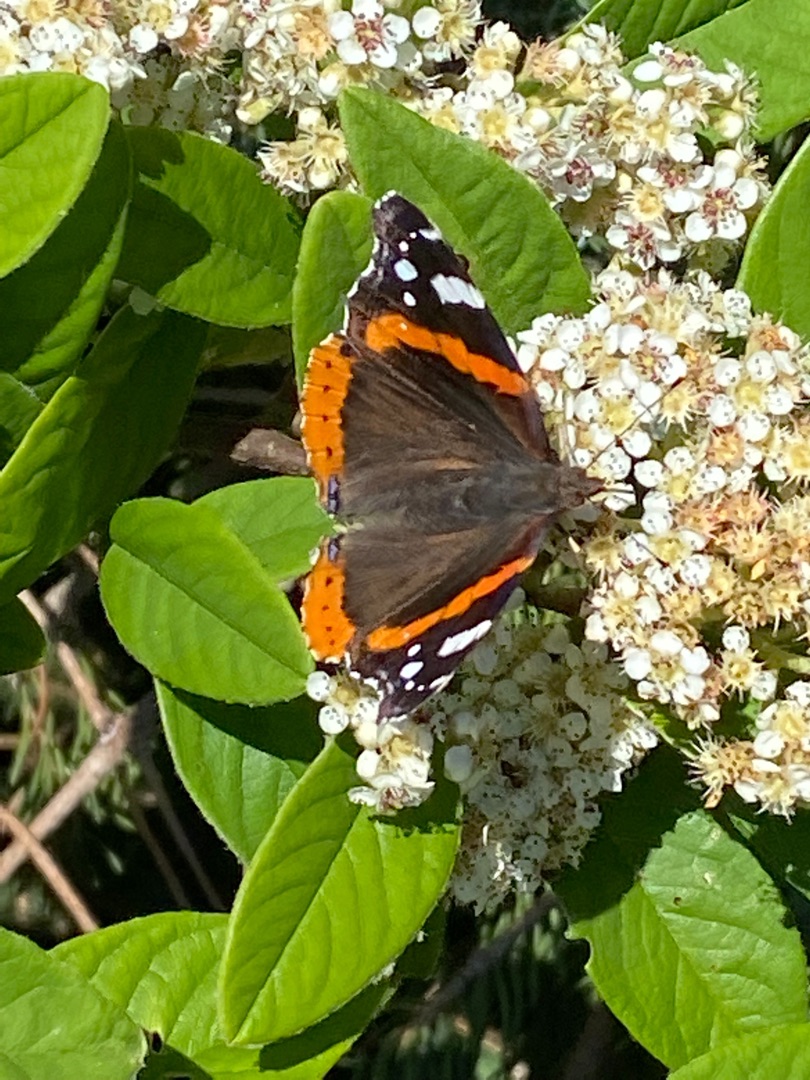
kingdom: Animalia
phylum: Arthropoda
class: Insecta
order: Lepidoptera
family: Nymphalidae
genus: Vanessa
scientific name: Vanessa atalanta
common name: Admiral
